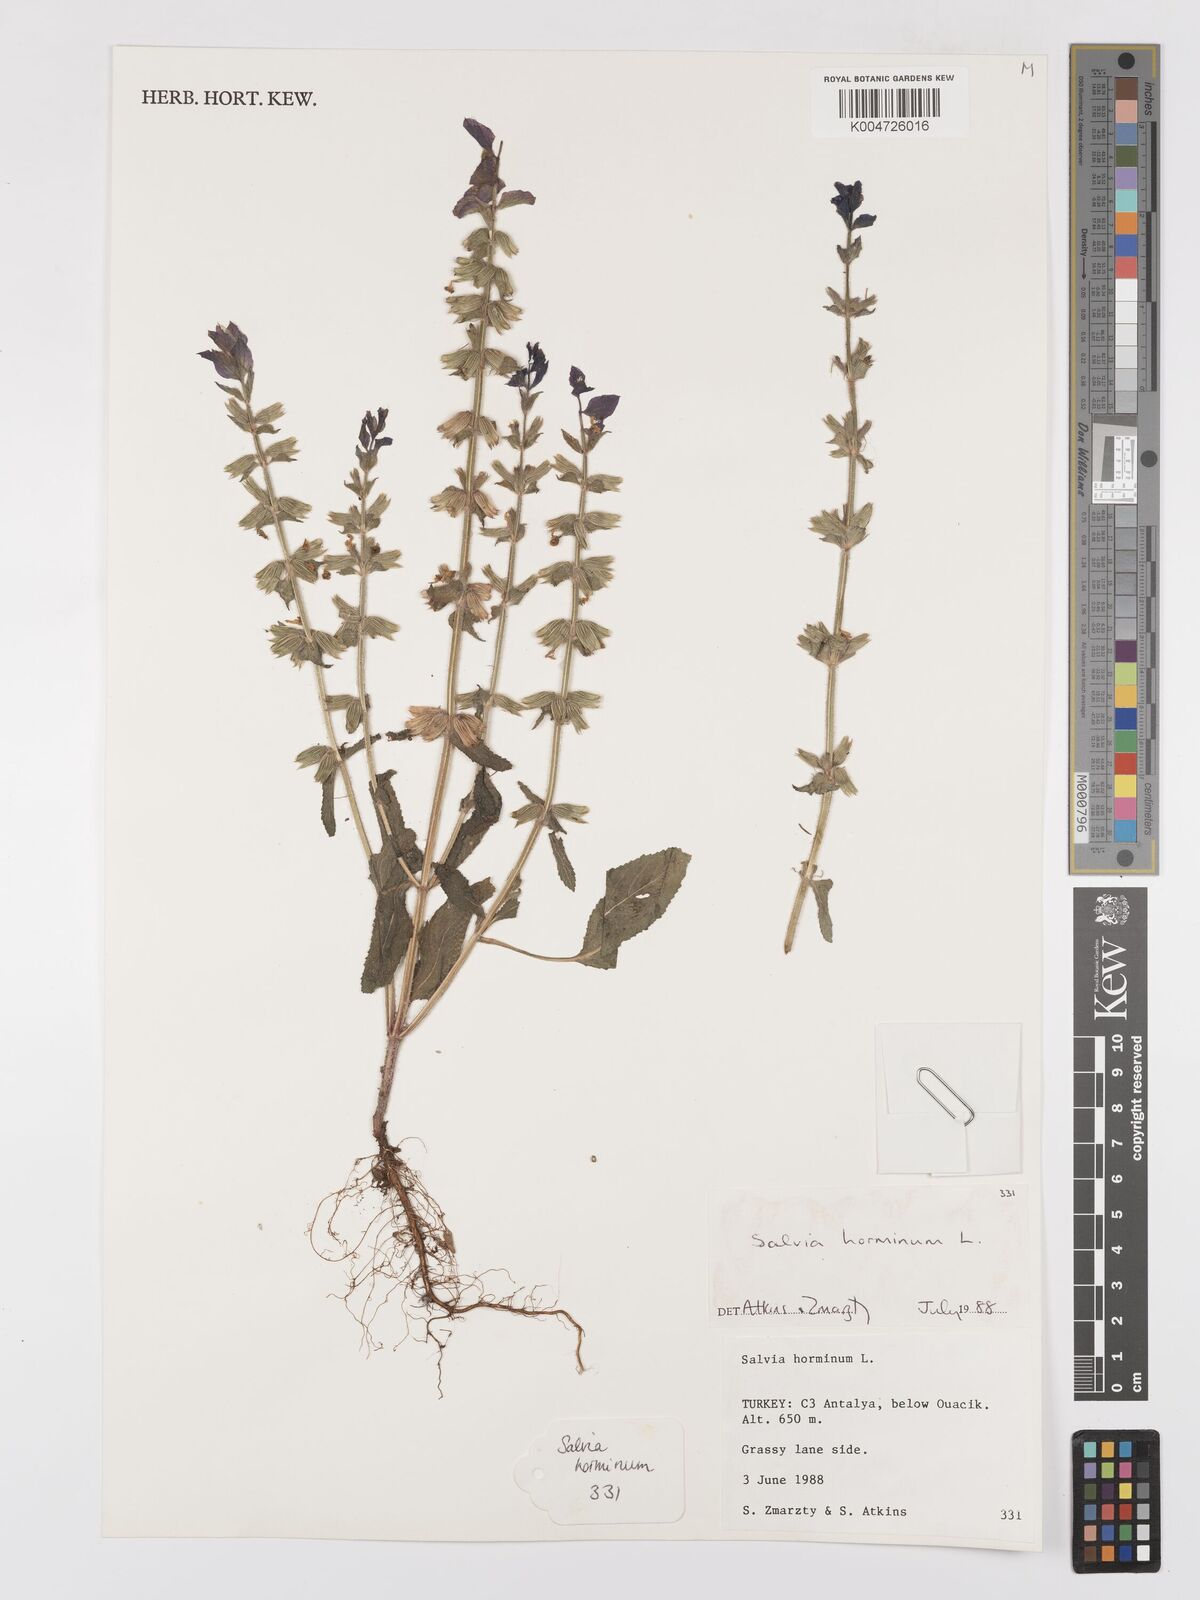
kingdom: Plantae
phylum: Tracheophyta
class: Magnoliopsida
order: Lamiales
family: Lamiaceae
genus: Salvia
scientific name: Salvia viridis
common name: Annual clary
